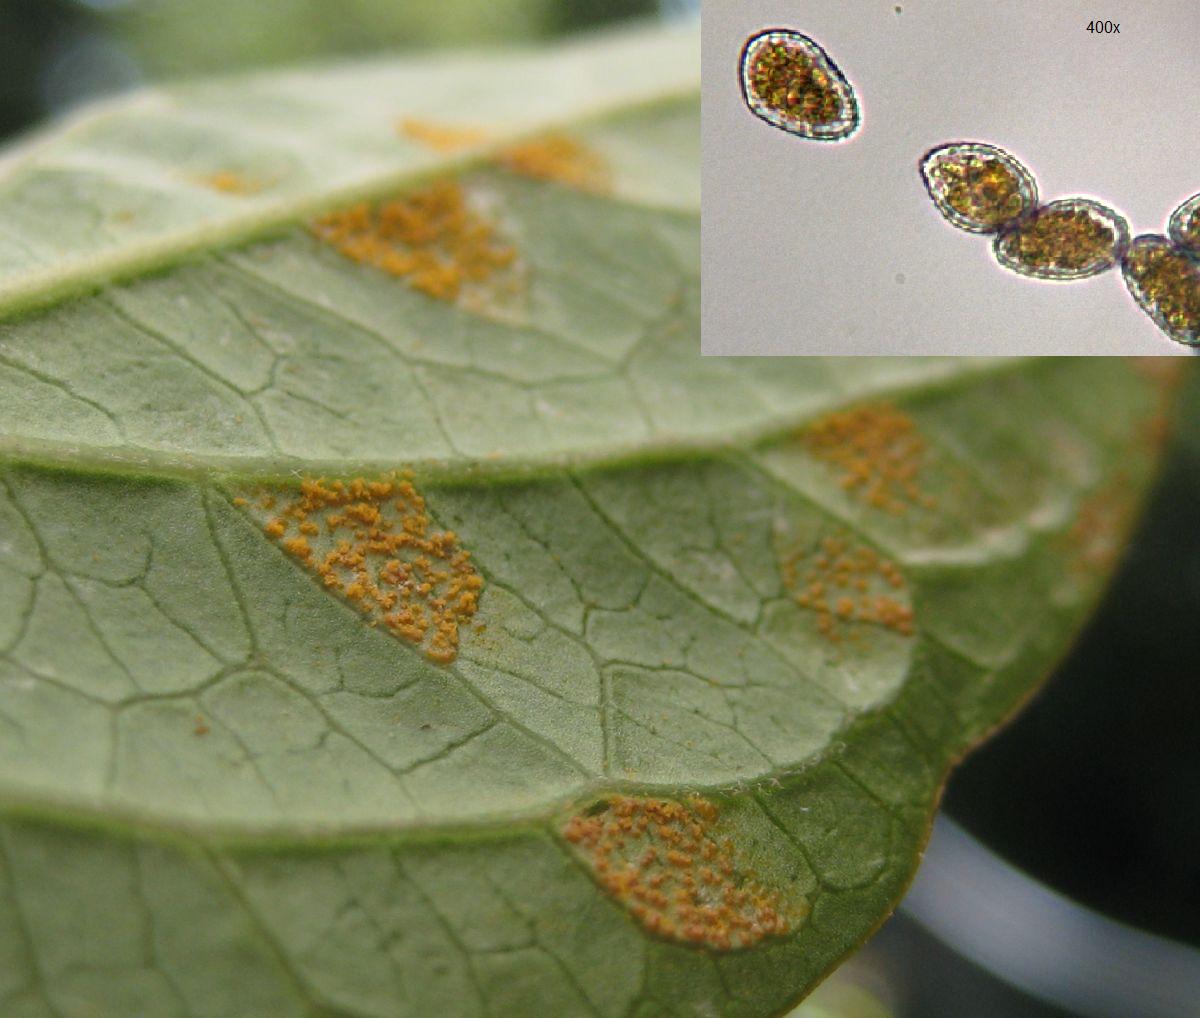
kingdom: Fungi
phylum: Basidiomycota
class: Pucciniomycetes
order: Pucciniales
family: Cronartiaceae
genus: Cronartium
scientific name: Cronartium pini
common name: Scots pine blister rust
